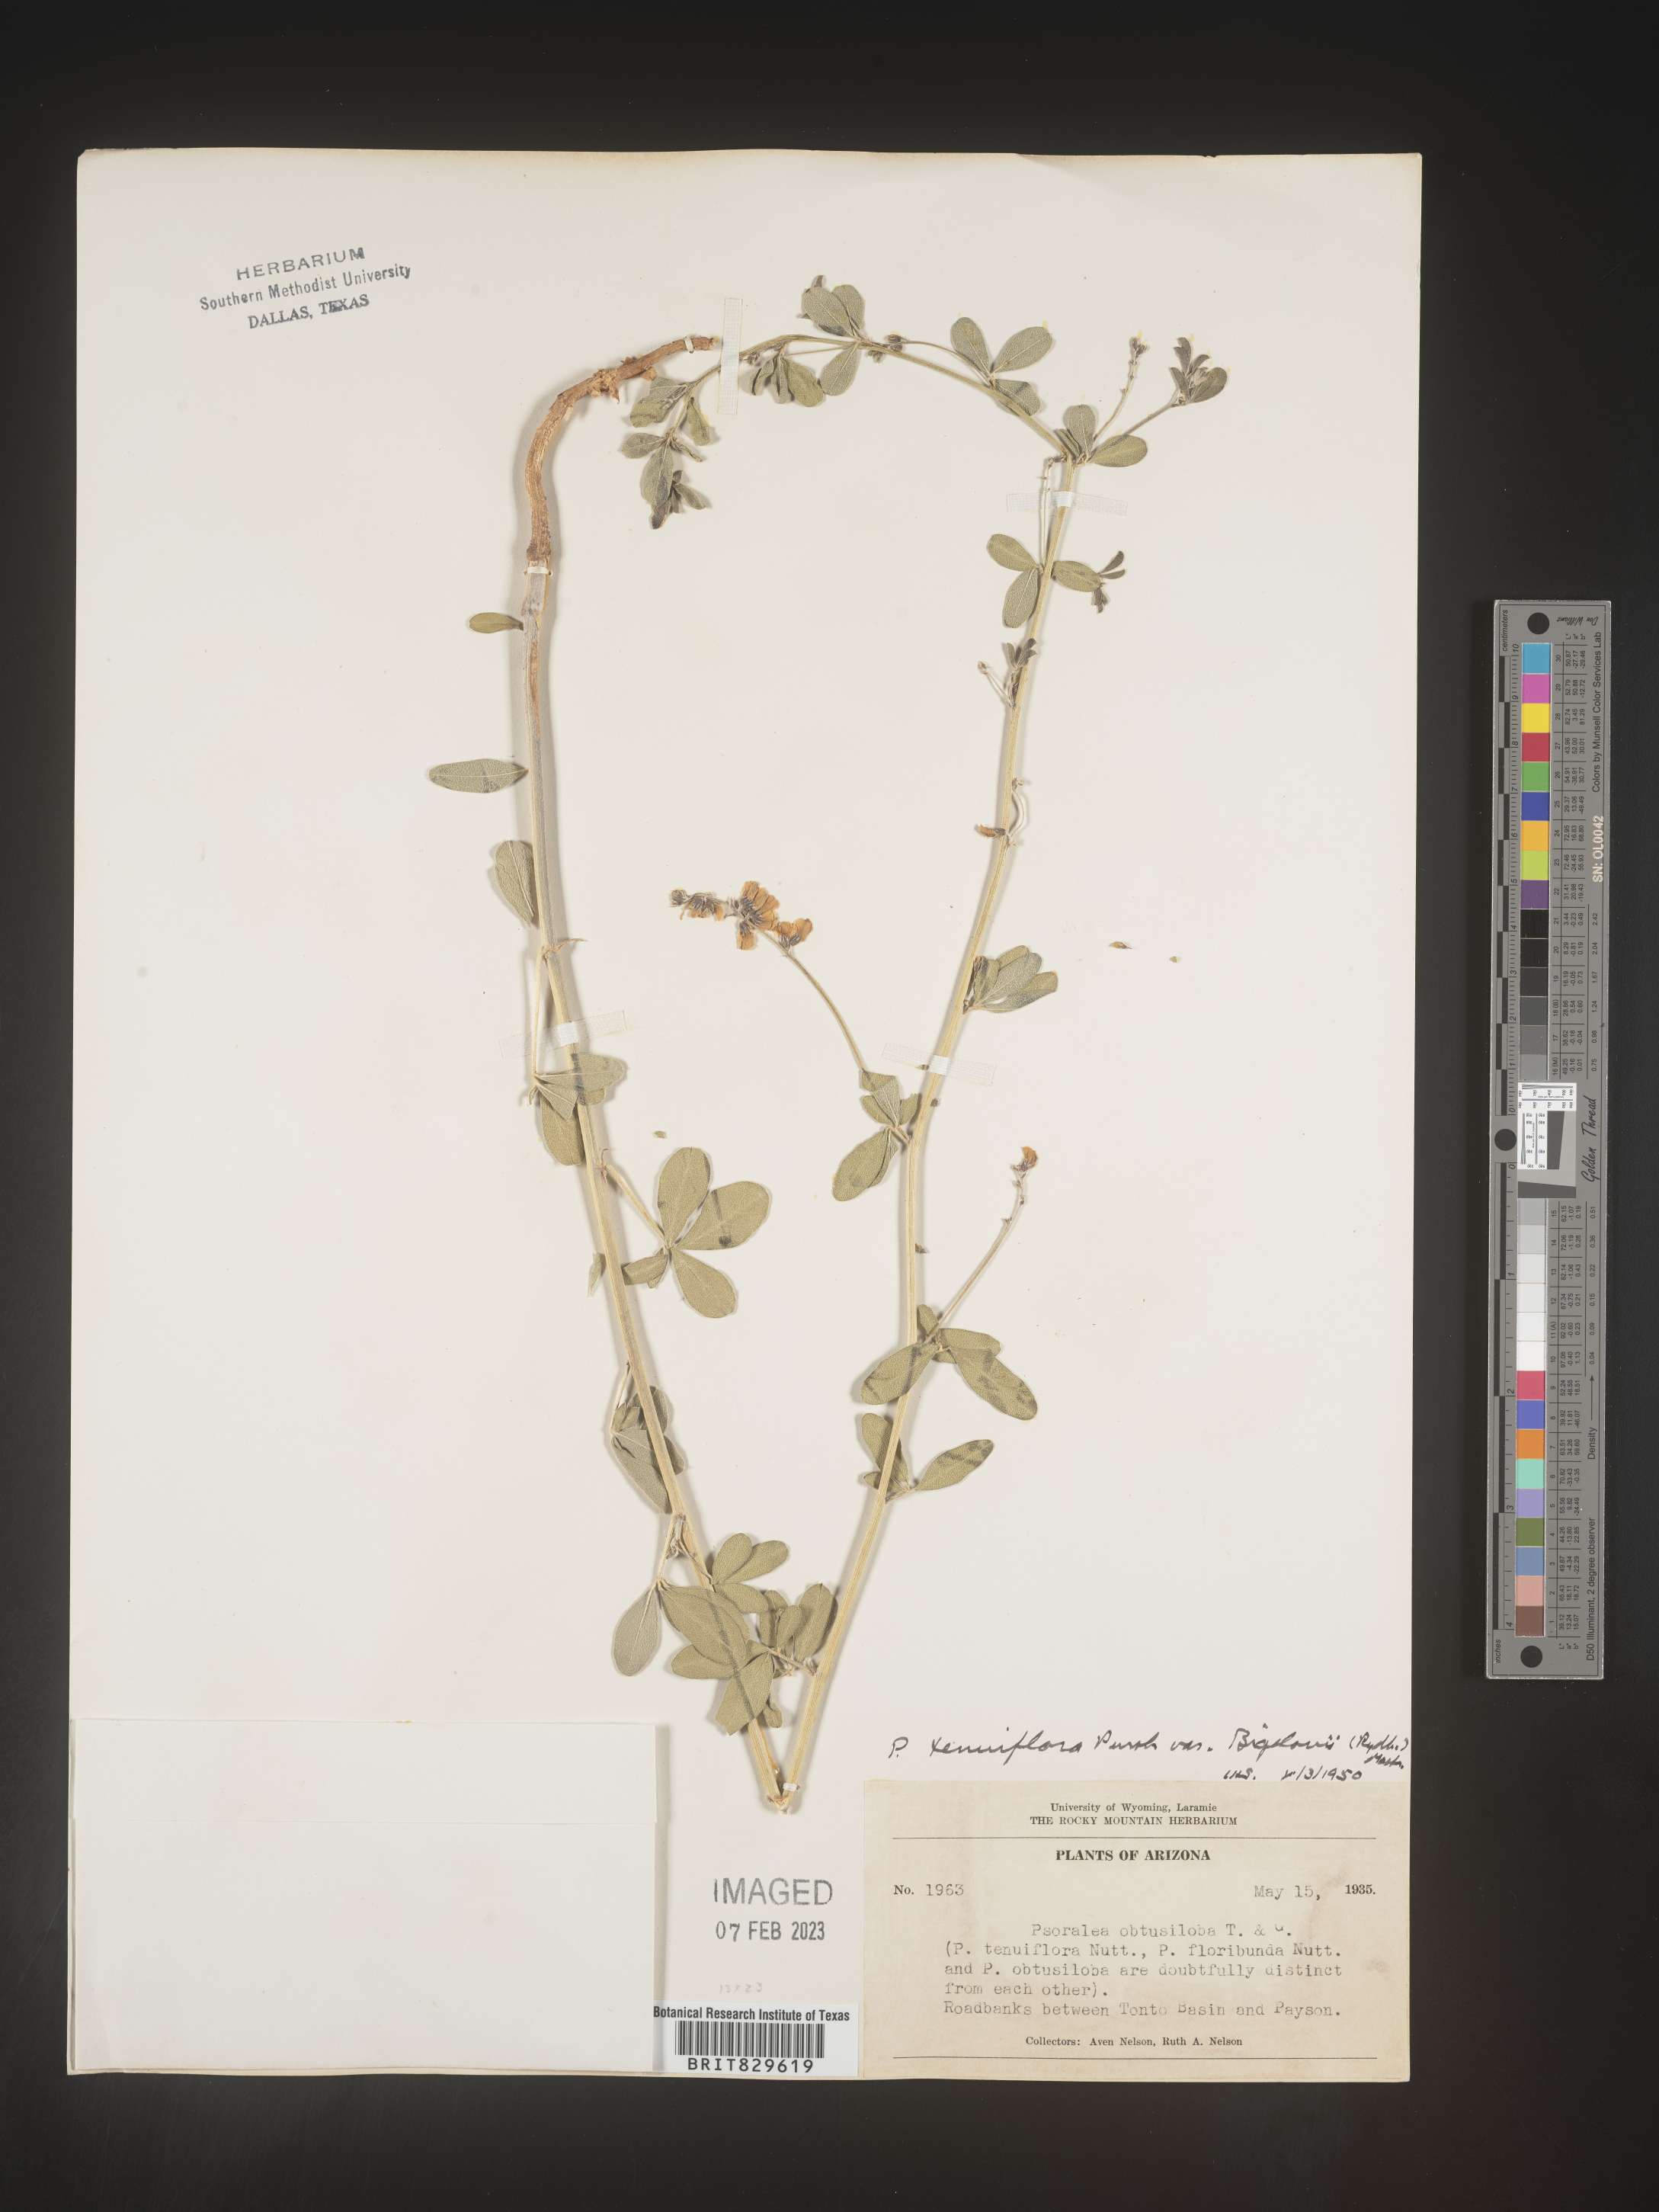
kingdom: Plantae
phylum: Tracheophyta
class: Magnoliopsida
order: Fabales
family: Fabaceae
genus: Pediomelum
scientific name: Pediomelum tenuiflorum
